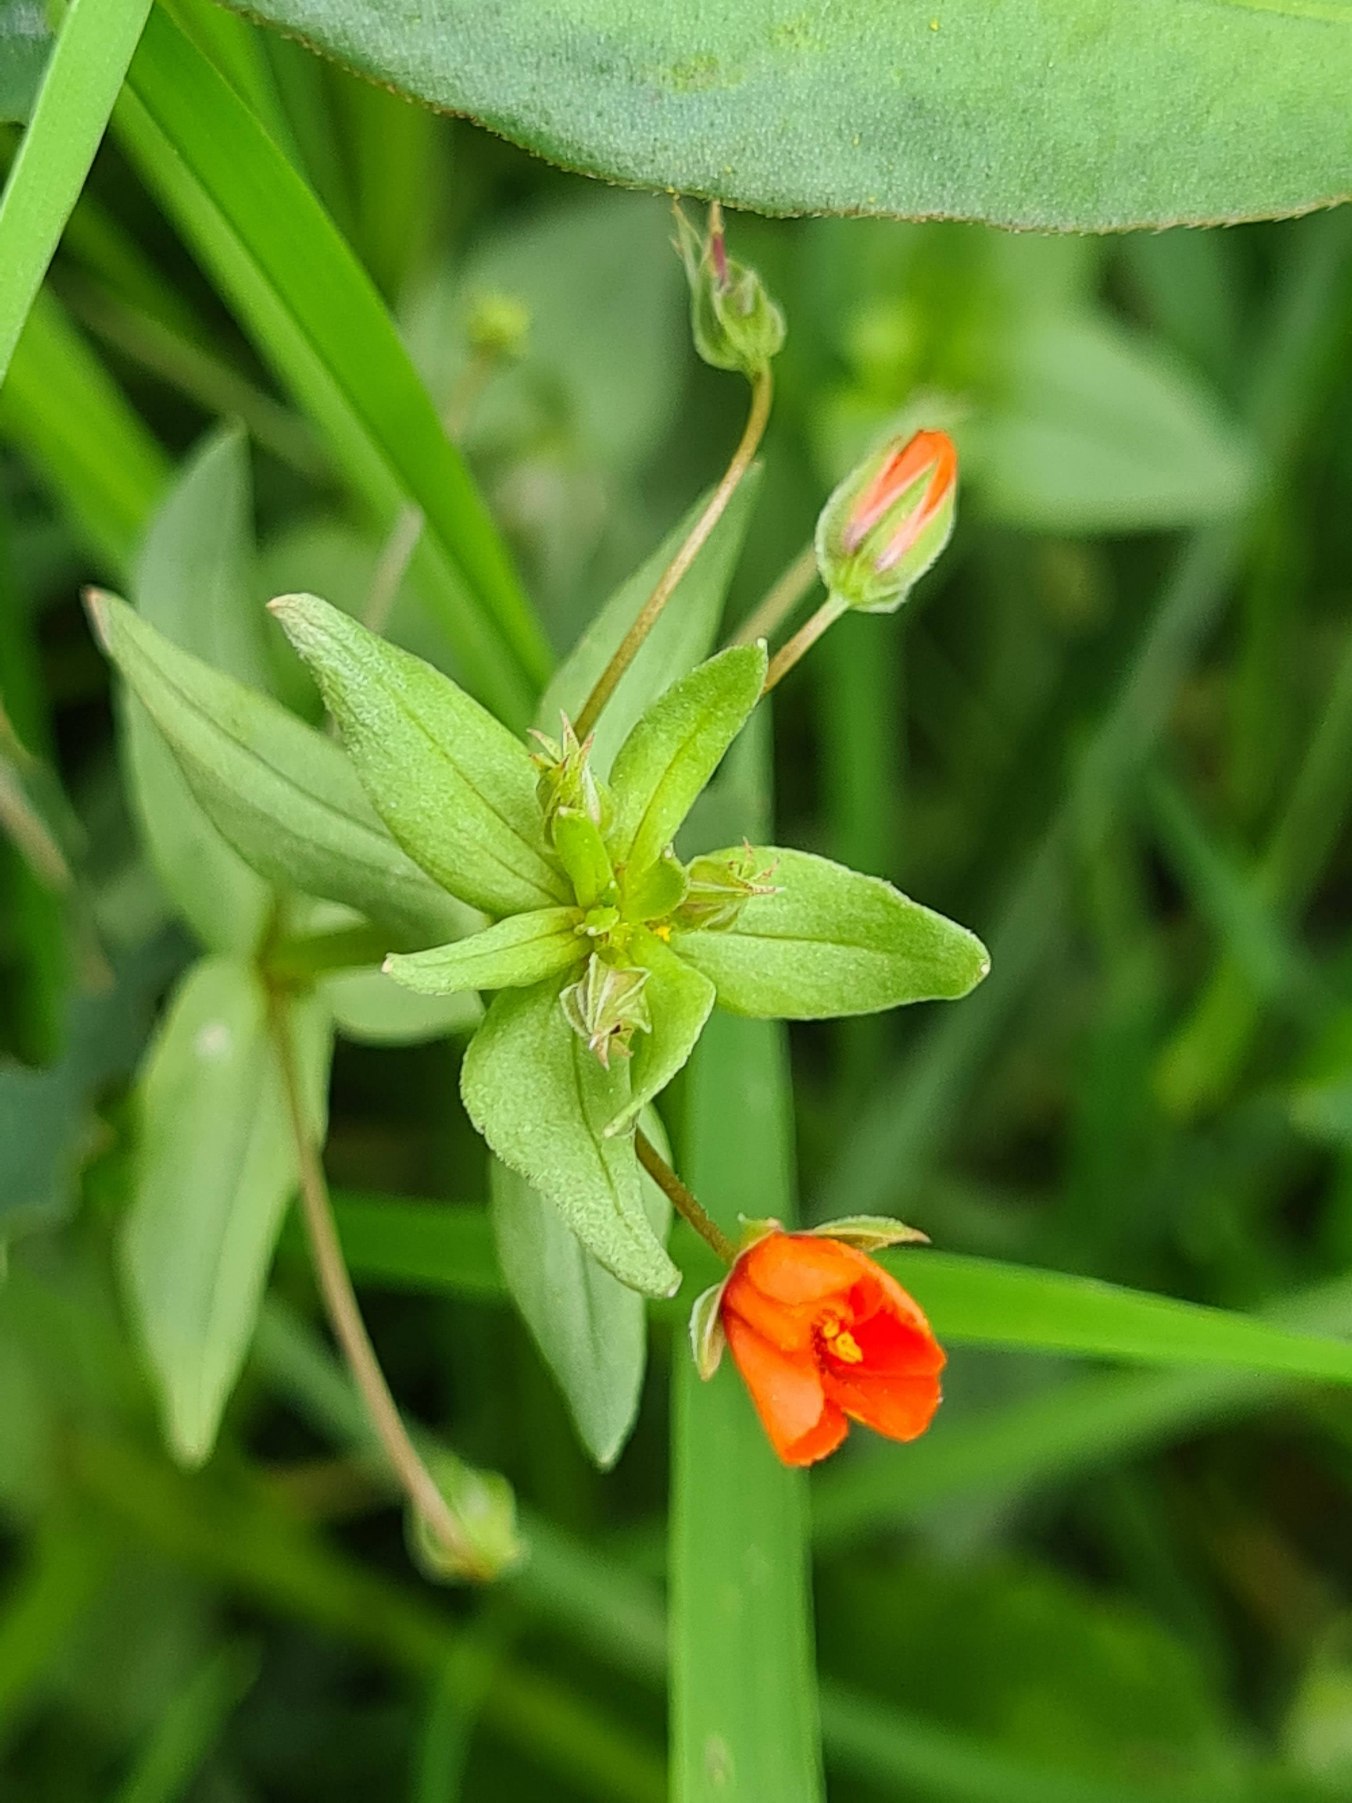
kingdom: Plantae
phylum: Tracheophyta
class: Magnoliopsida
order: Ericales
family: Primulaceae
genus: Lysimachia
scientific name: Lysimachia arvensis
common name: Rød arve
